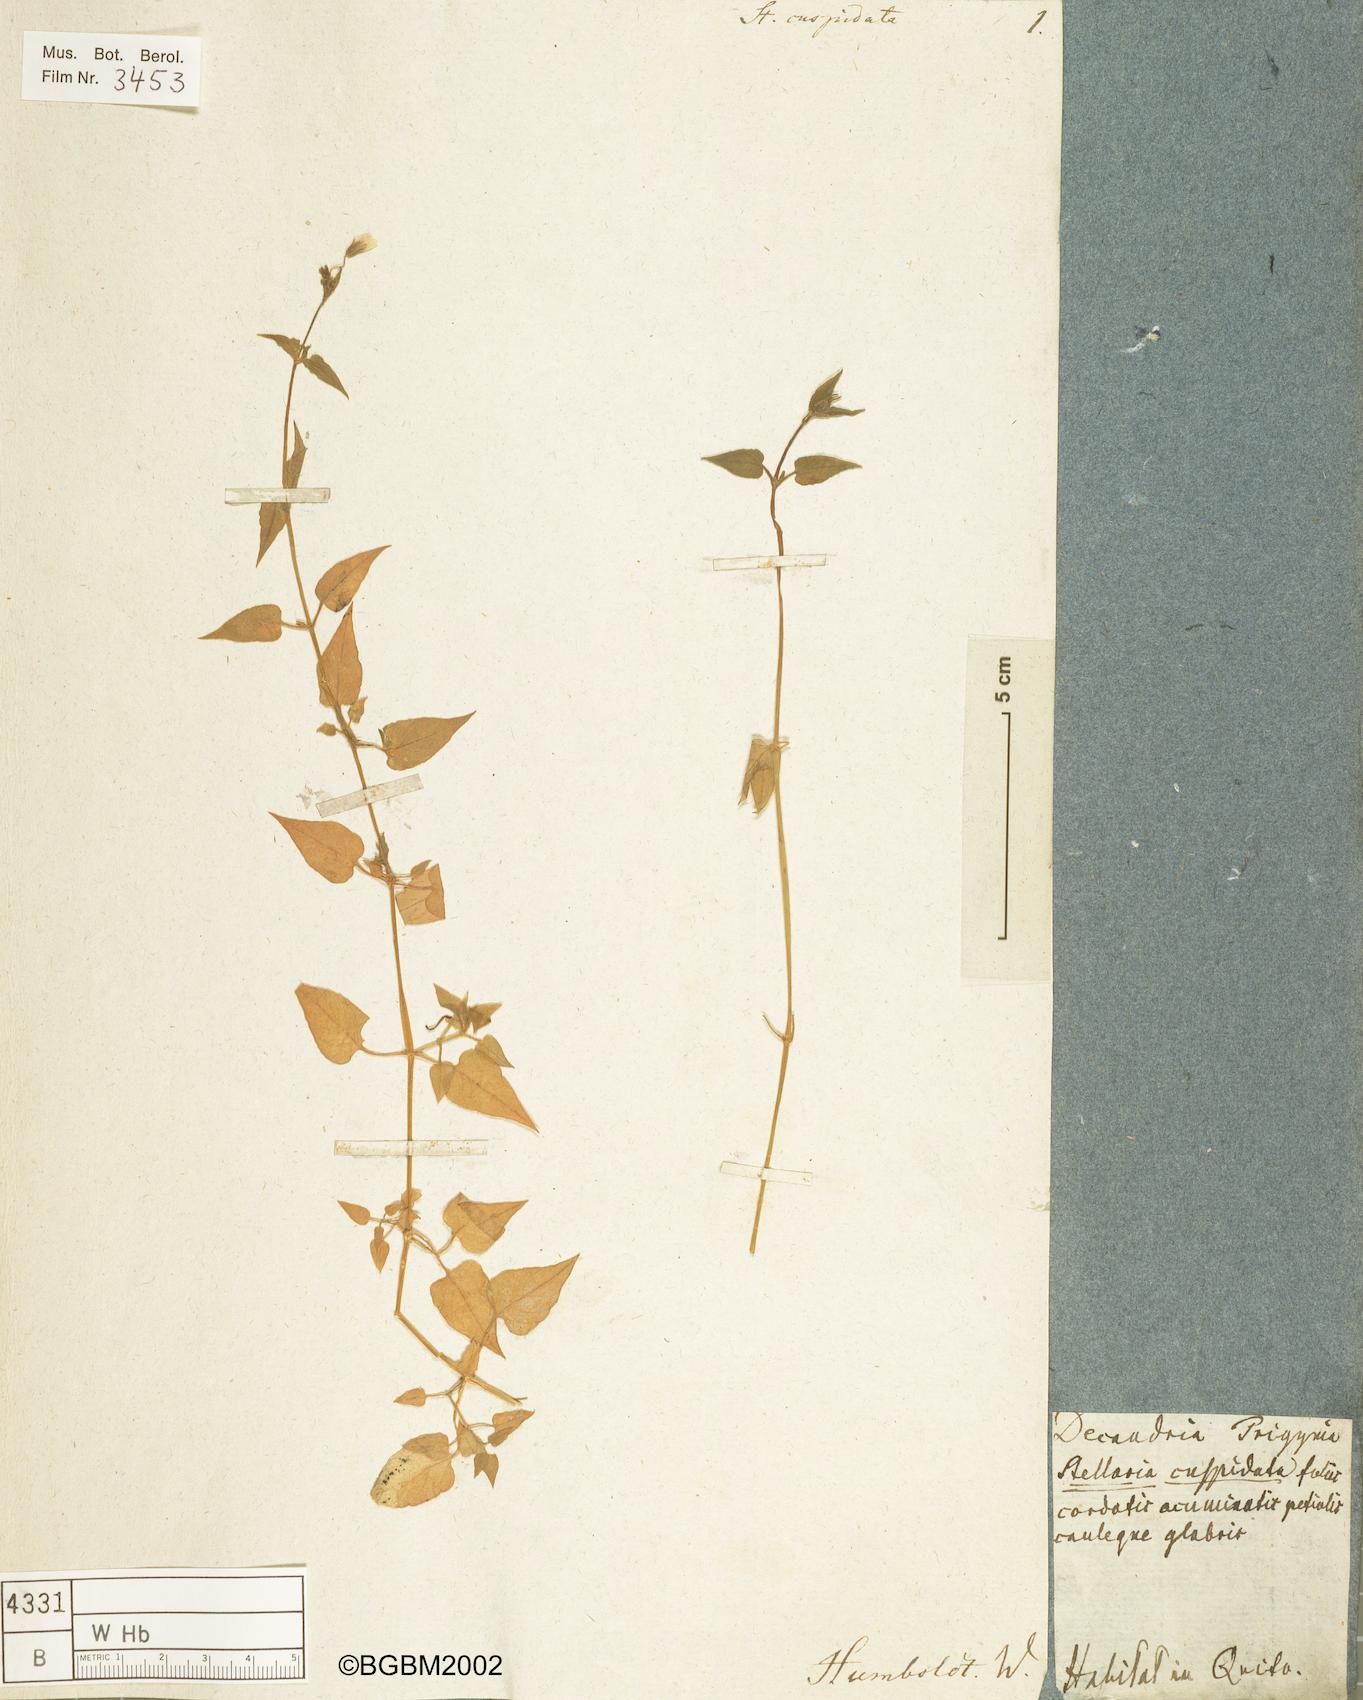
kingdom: Plantae
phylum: Tracheophyta
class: Magnoliopsida
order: Caryophyllales
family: Caryophyllaceae
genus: Stellaria
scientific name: Stellaria cuspidata
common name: Mexican chickweed
